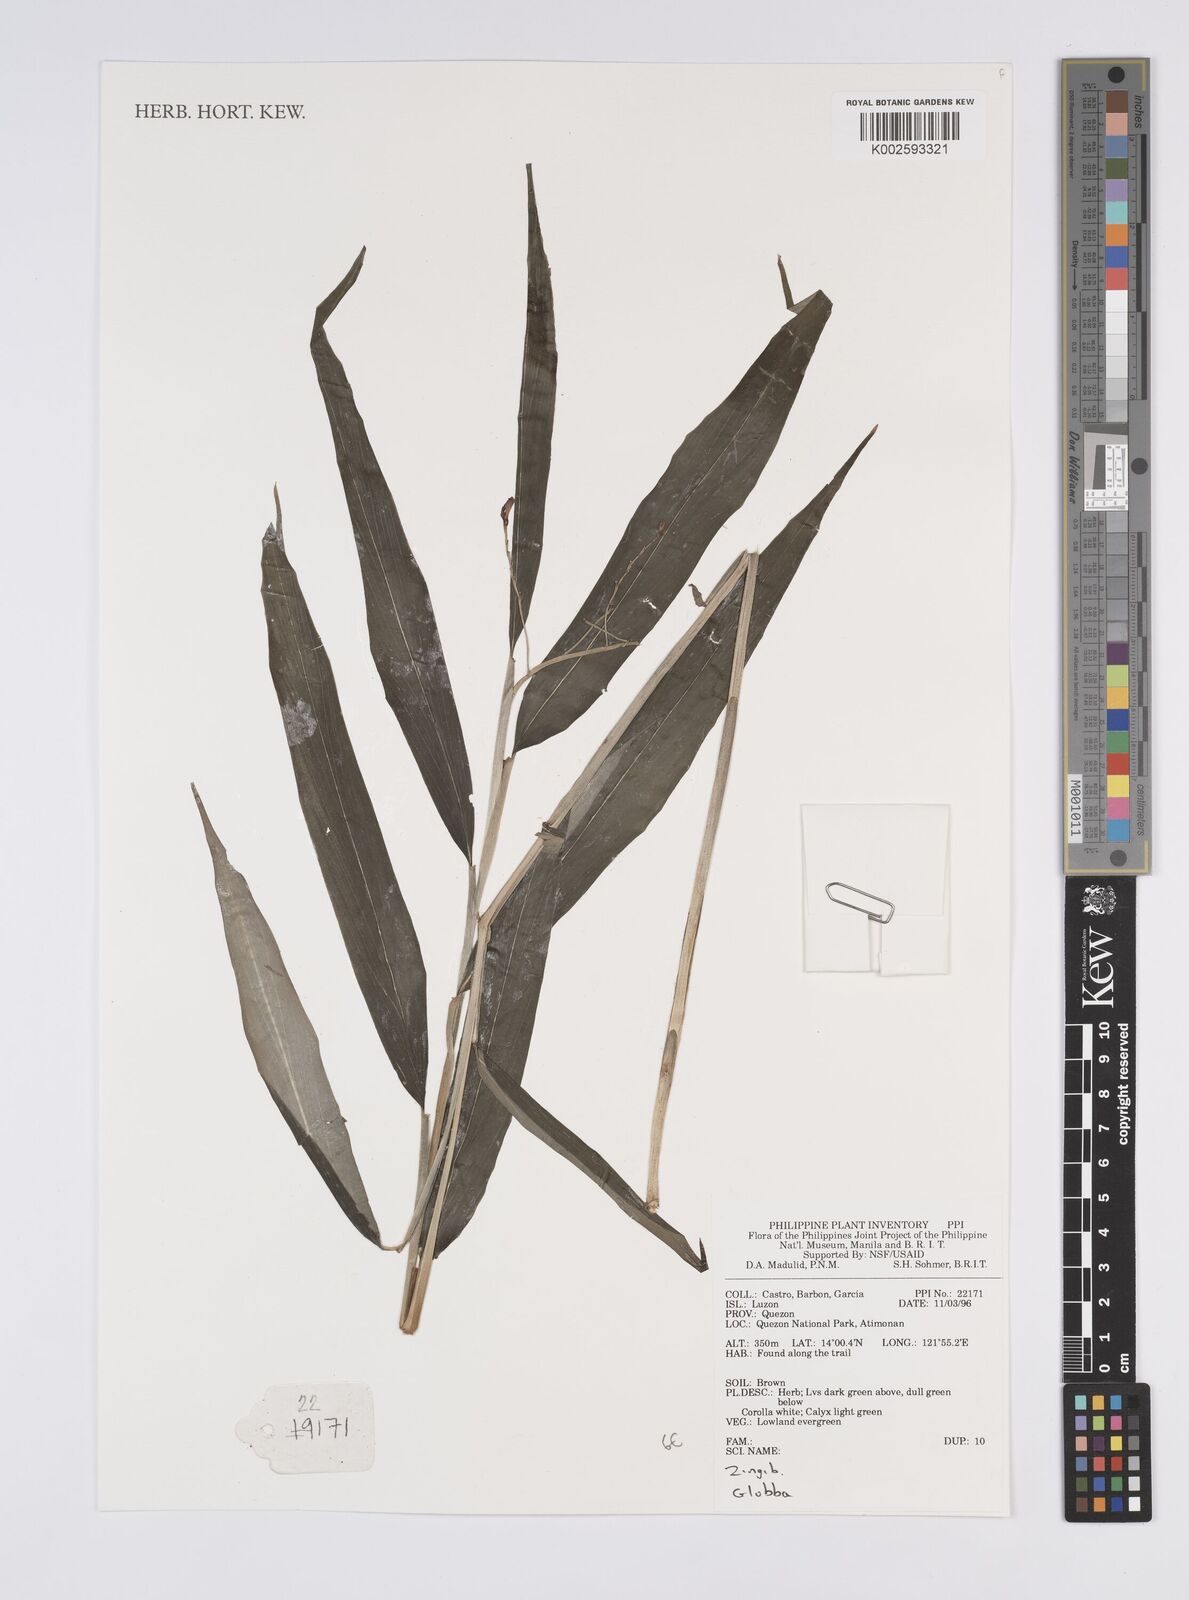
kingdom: Plantae
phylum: Tracheophyta
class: Liliopsida
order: Zingiberales
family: Zingiberaceae
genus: Globba
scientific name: Globba
